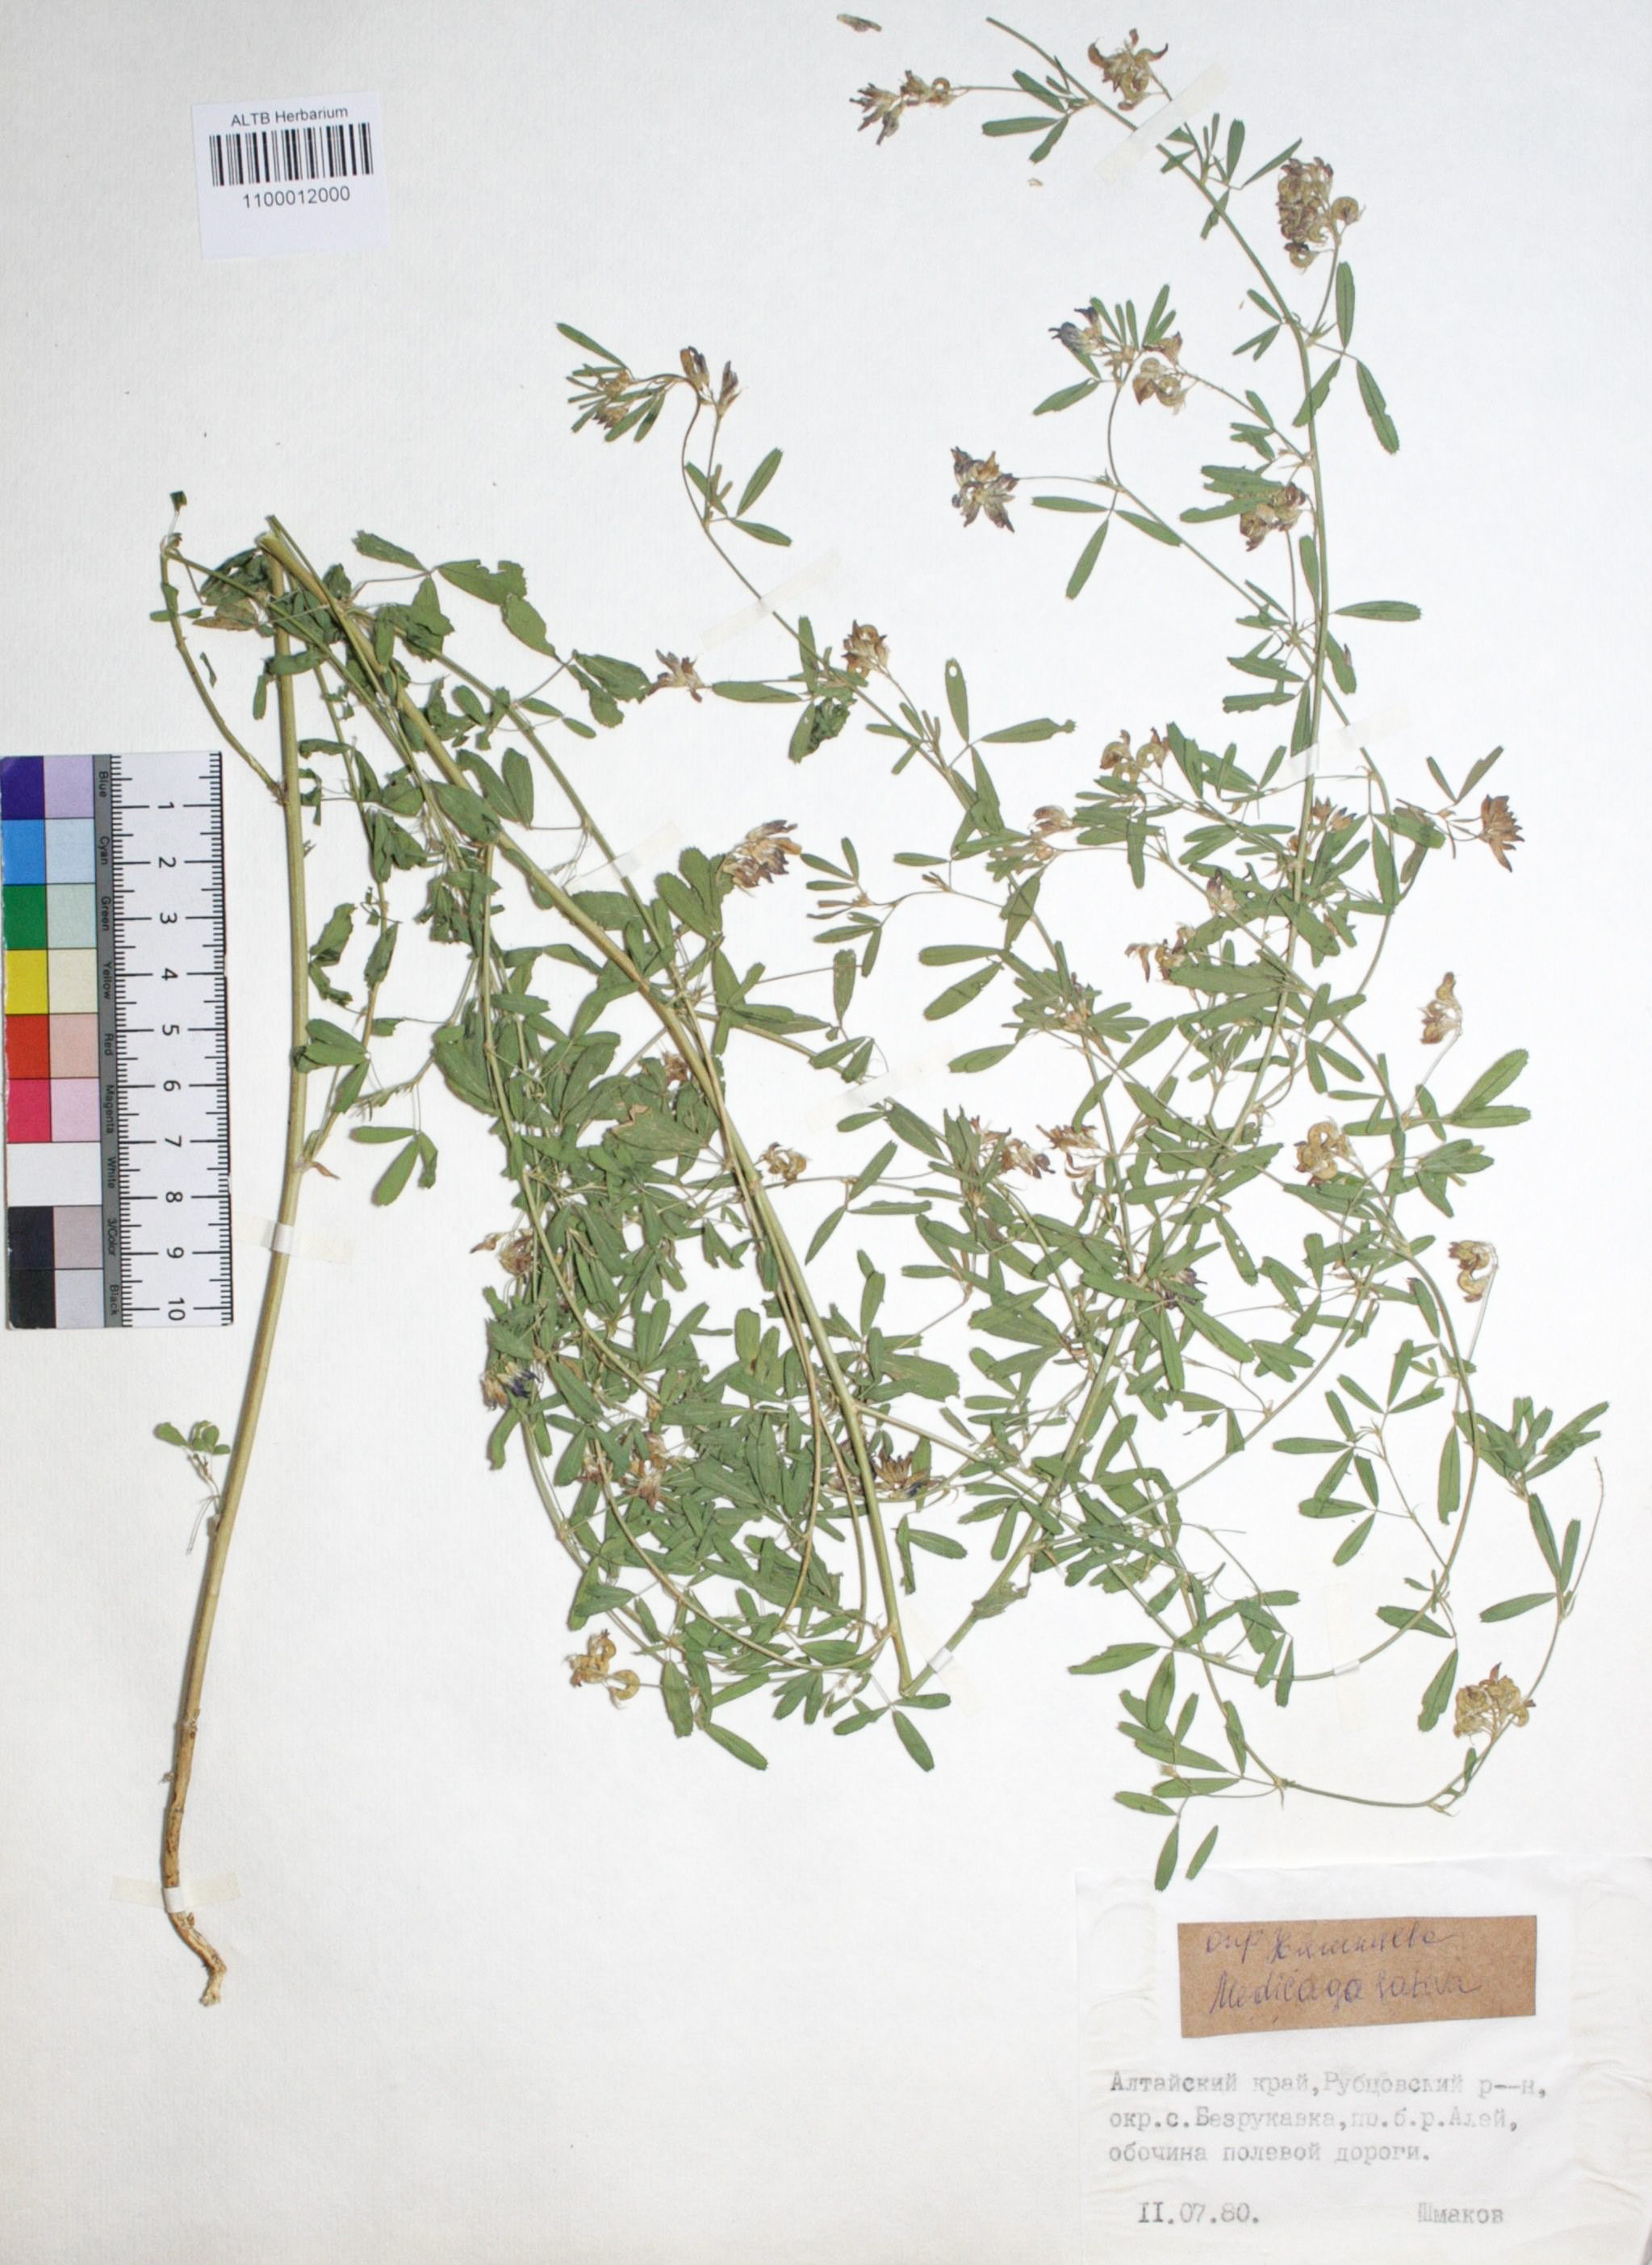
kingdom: Plantae
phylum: Tracheophyta
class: Magnoliopsida
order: Fabales
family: Fabaceae
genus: Medicago
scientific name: Medicago sativa
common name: Alfalfa
